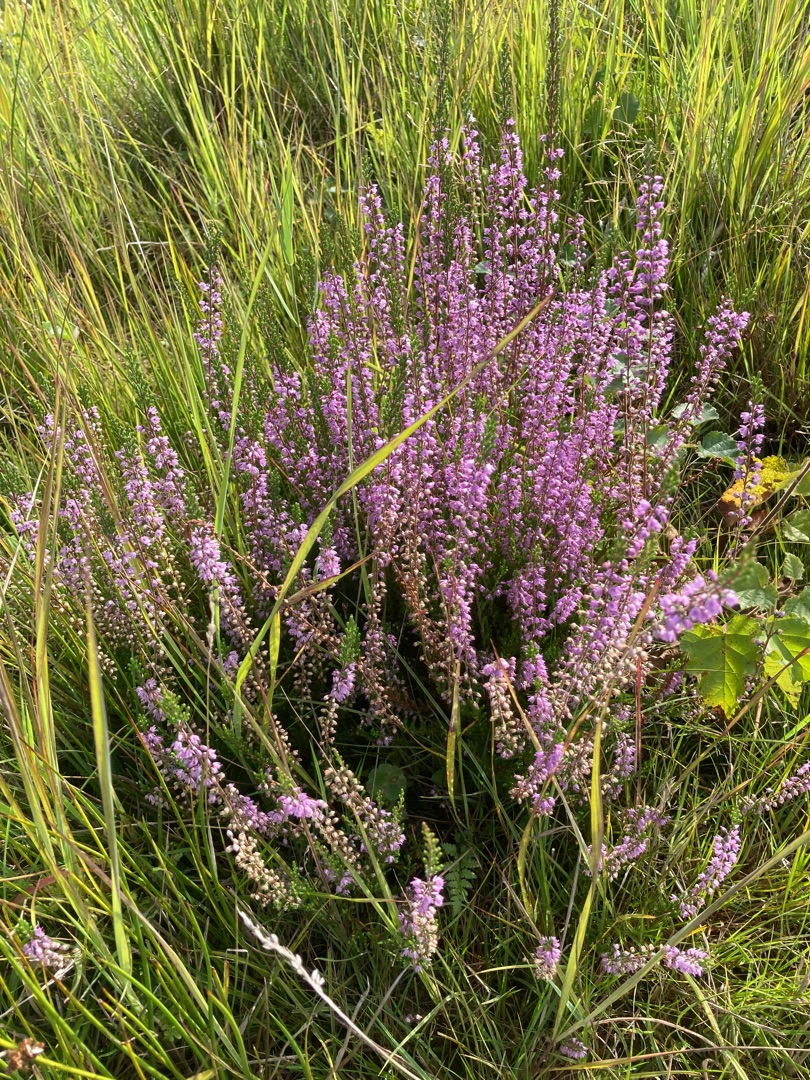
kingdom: Plantae
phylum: Tracheophyta
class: Magnoliopsida
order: Ericales
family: Ericaceae
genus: Calluna
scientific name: Calluna vulgaris
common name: Hedelyng
